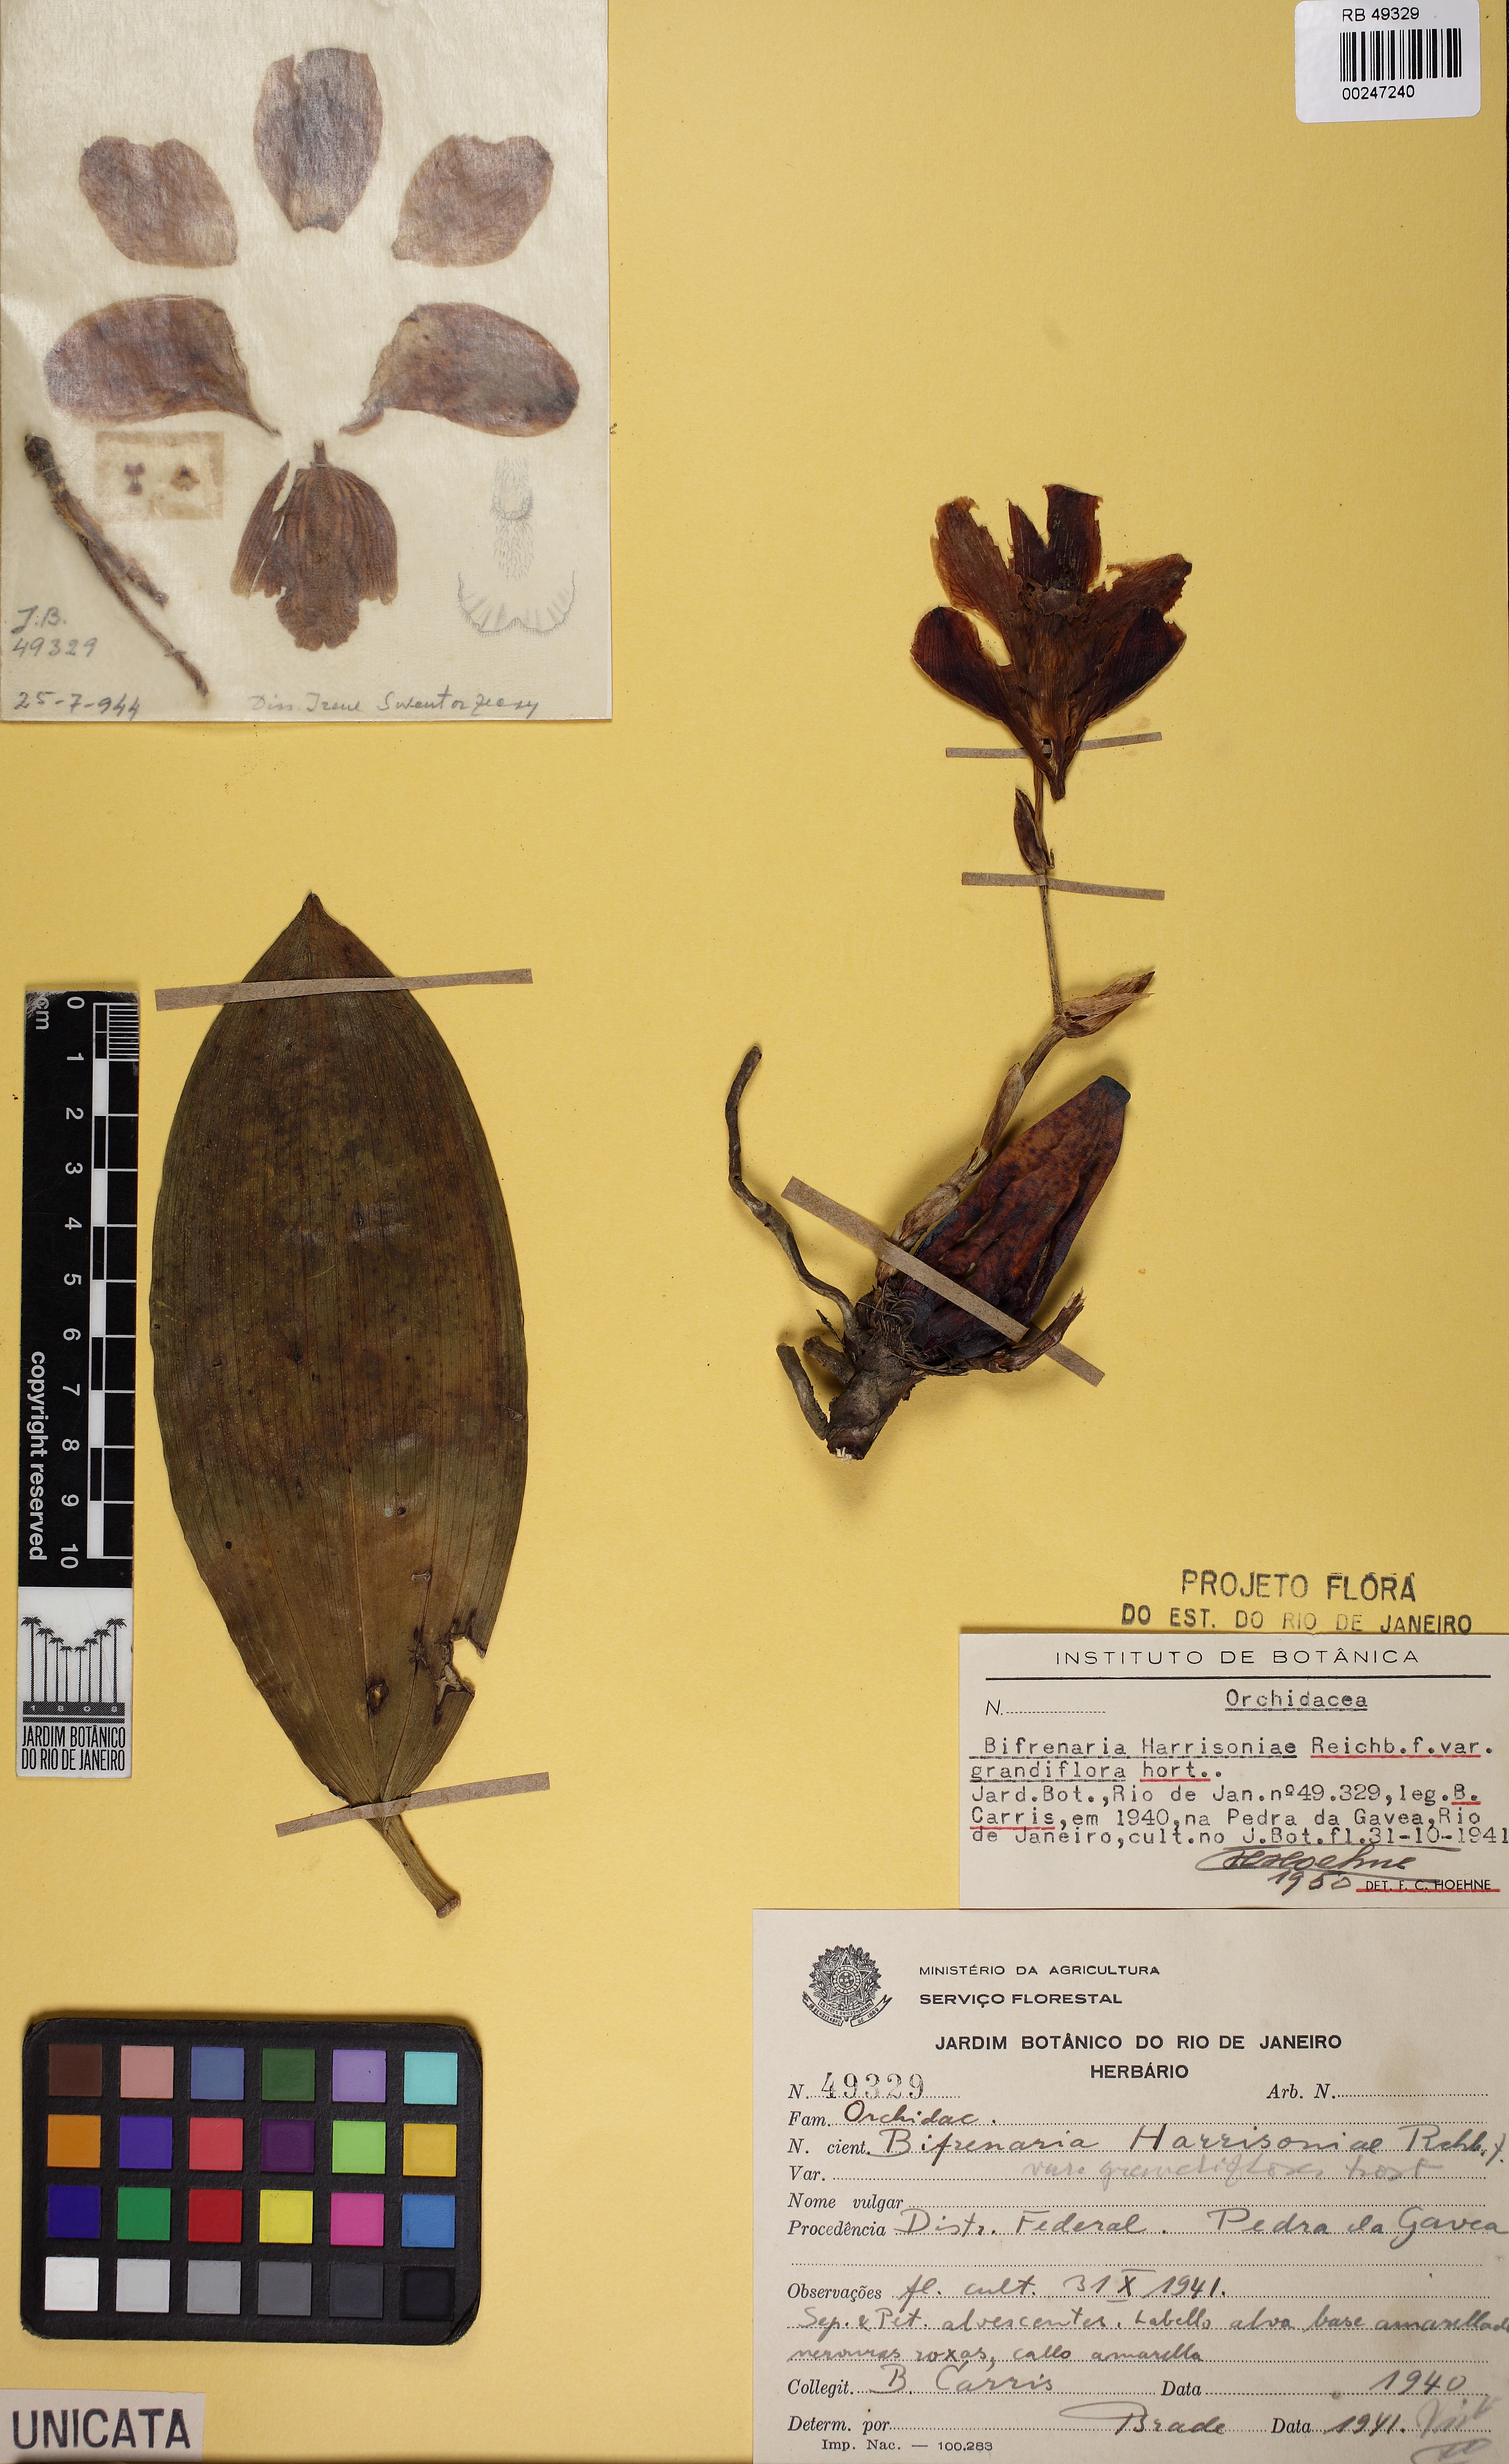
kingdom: Plantae
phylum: Tracheophyta
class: Liliopsida
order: Asparagales
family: Orchidaceae
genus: Bifrenaria
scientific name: Bifrenaria harrisoniae
